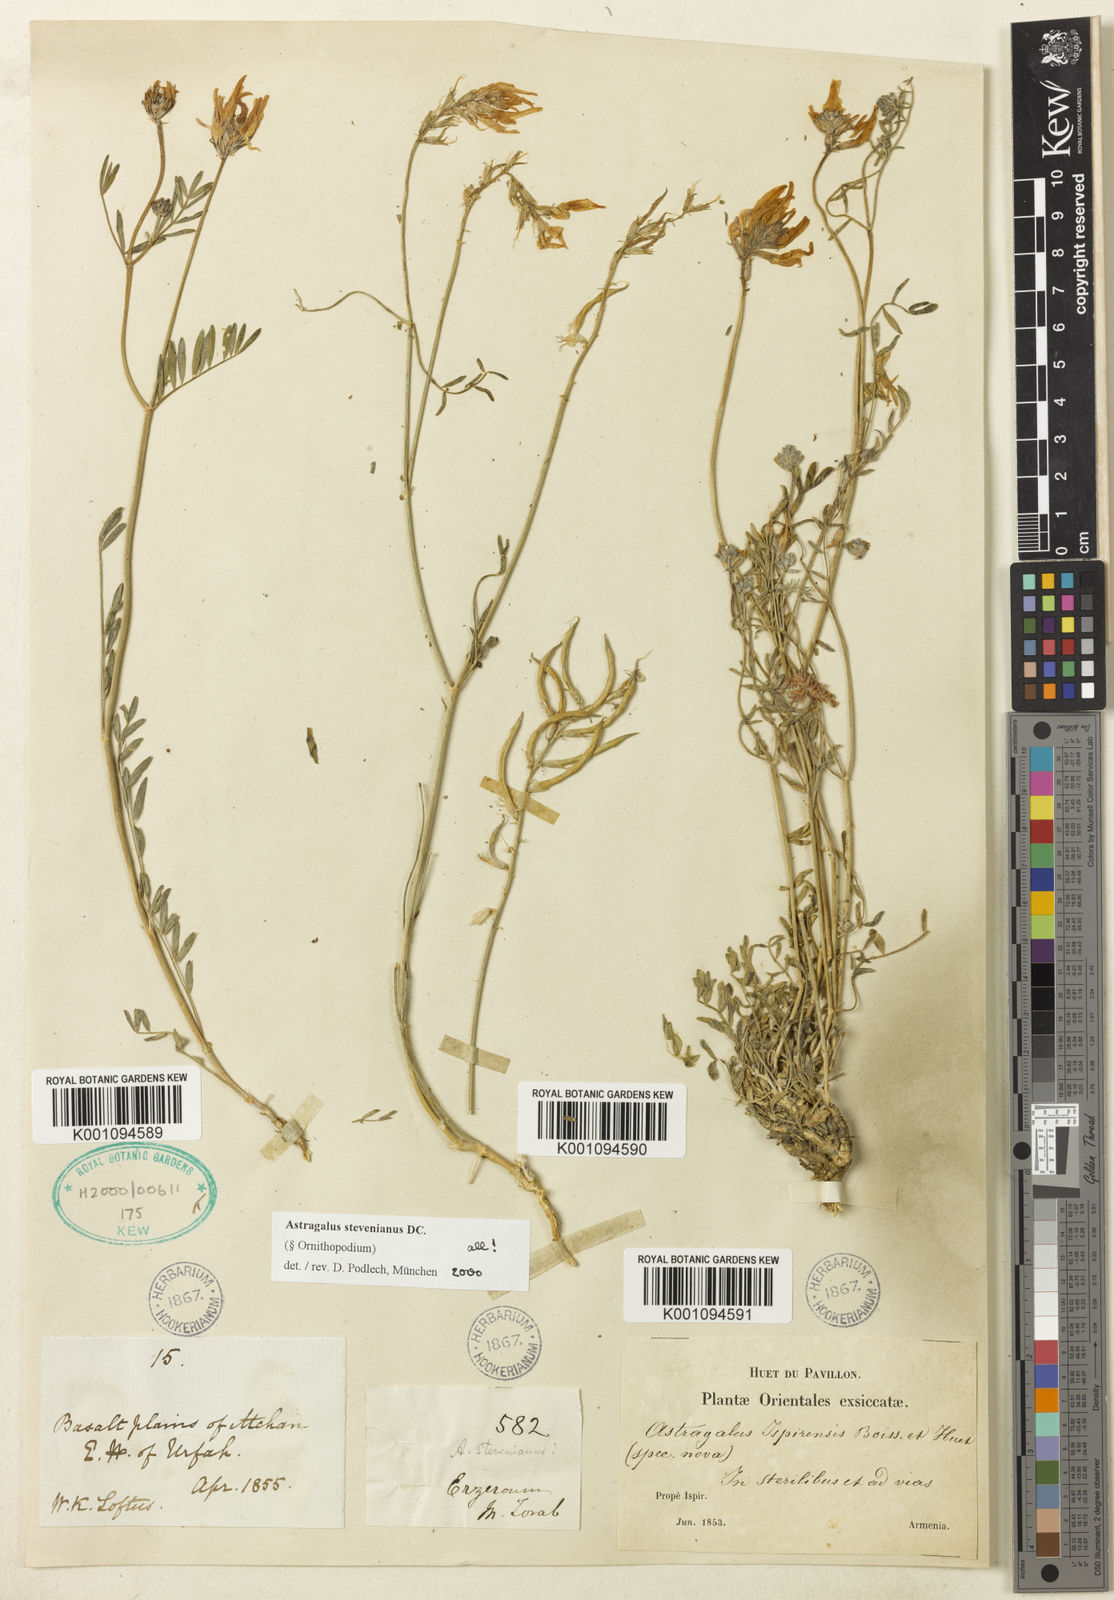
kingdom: Plantae
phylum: Tracheophyta
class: Magnoliopsida
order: Fabales
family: Fabaceae
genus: Astragalus
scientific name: Astragalus
